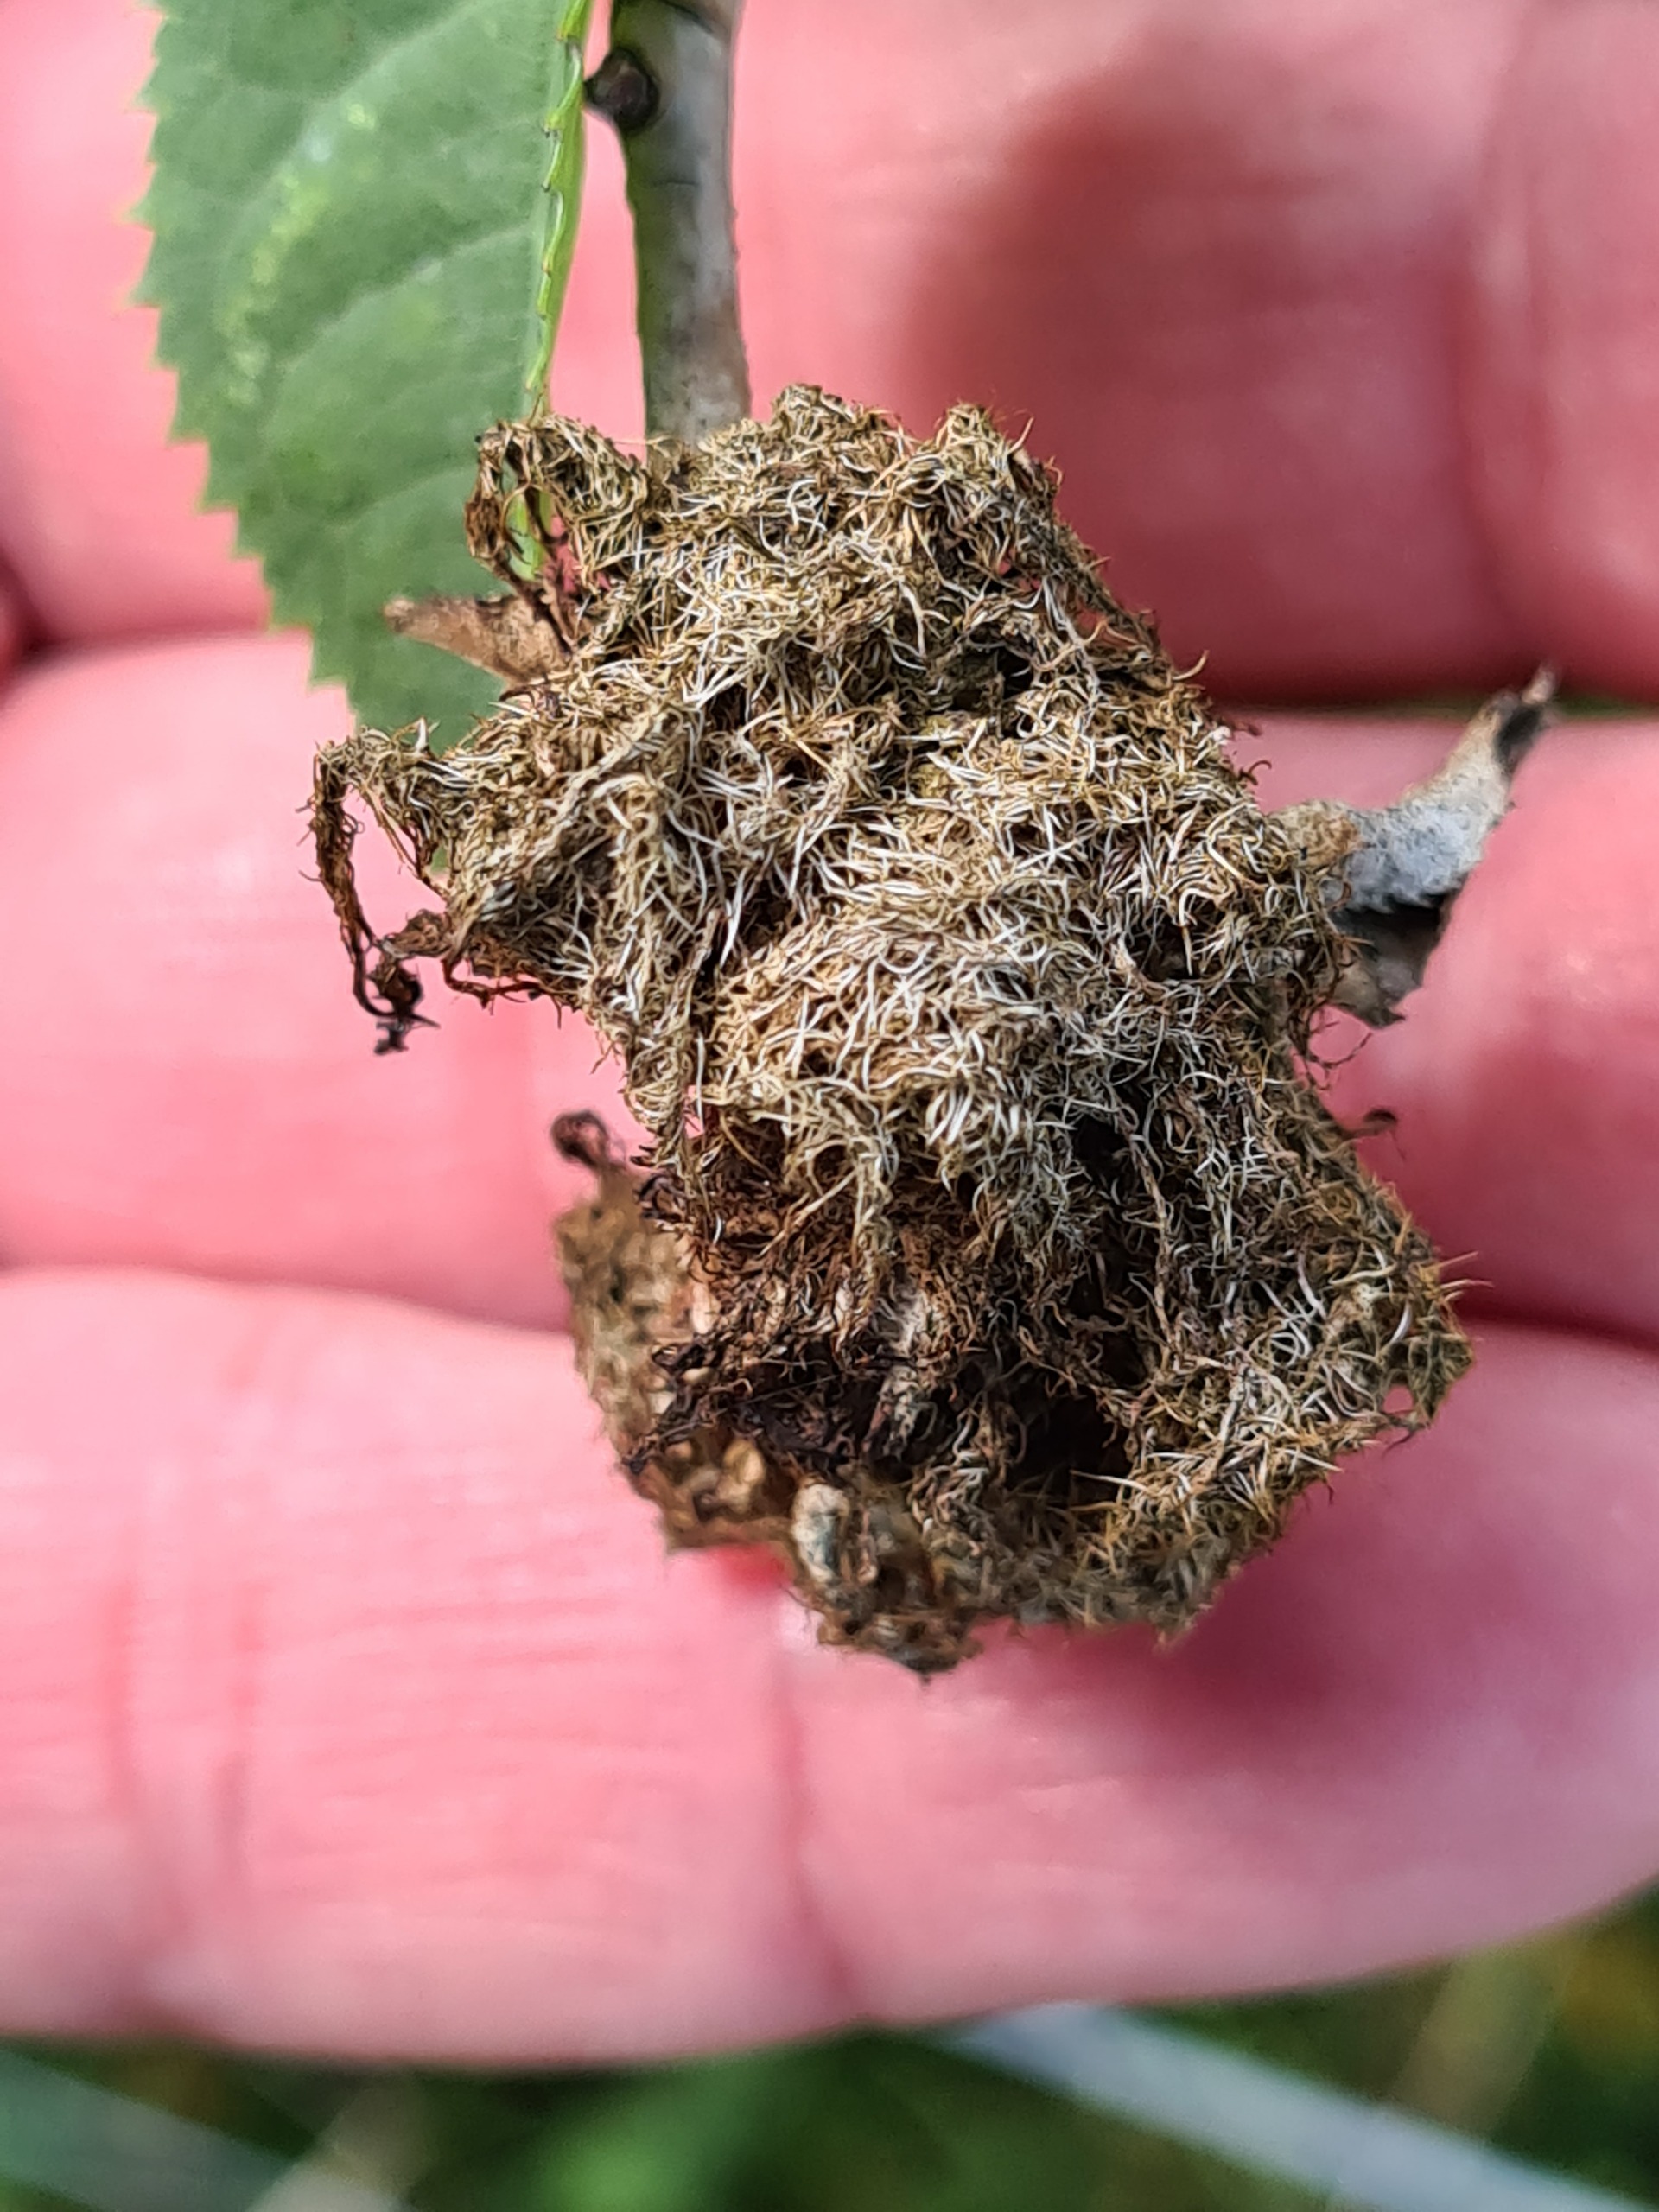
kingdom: Animalia
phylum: Arthropoda
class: Insecta
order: Hymenoptera
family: Cynipidae
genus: Diplolepis
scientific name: Diplolepis rosae
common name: Bedeguargalhveps
